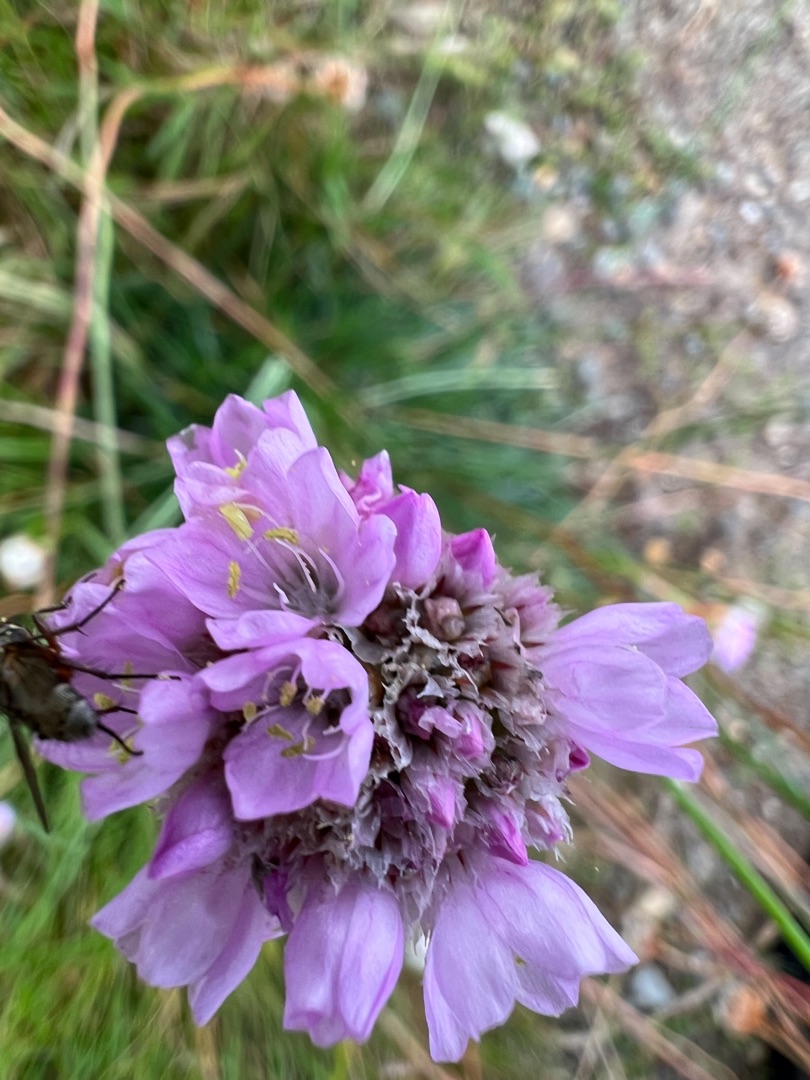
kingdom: Plantae
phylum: Tracheophyta
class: Magnoliopsida
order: Caryophyllales
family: Plumbaginaceae
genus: Armeria
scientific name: Armeria maritima
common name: Engelskgræs
